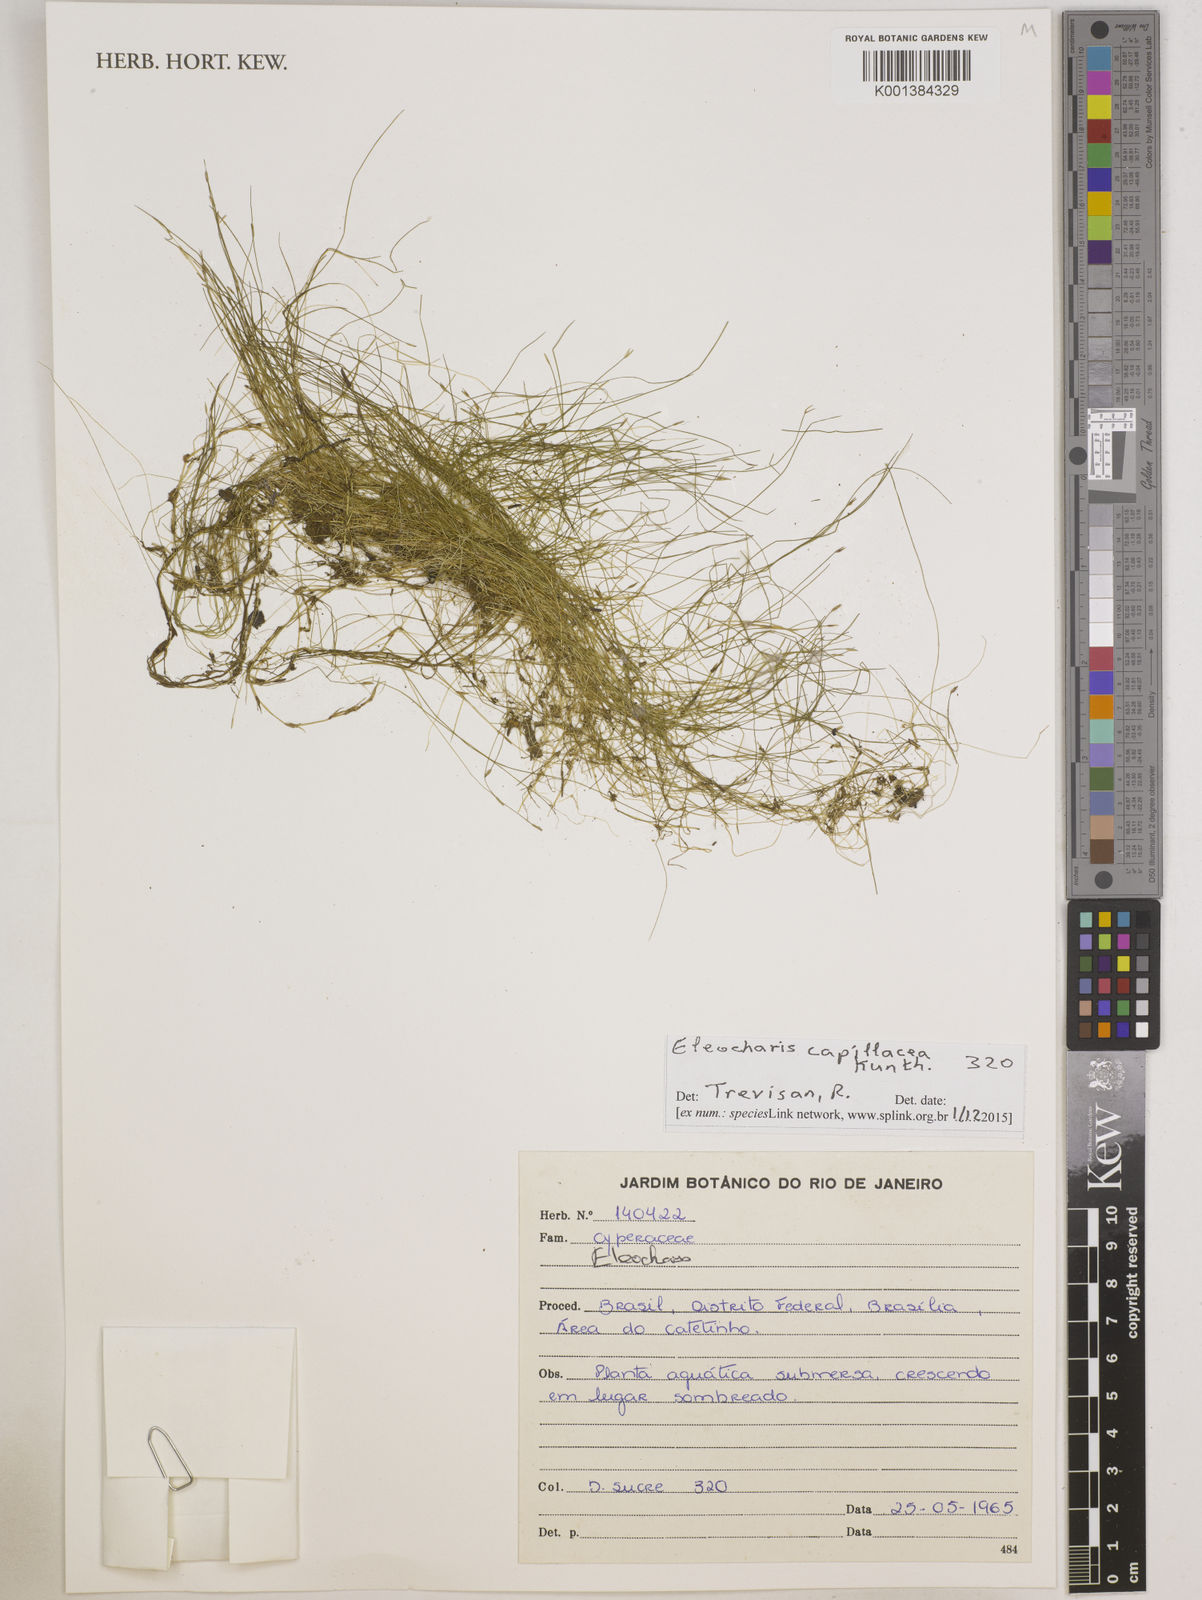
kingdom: Plantae
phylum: Tracheophyta
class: Liliopsida
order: Poales
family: Cyperaceae
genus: Eleocharis
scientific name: Eleocharis capillacea
